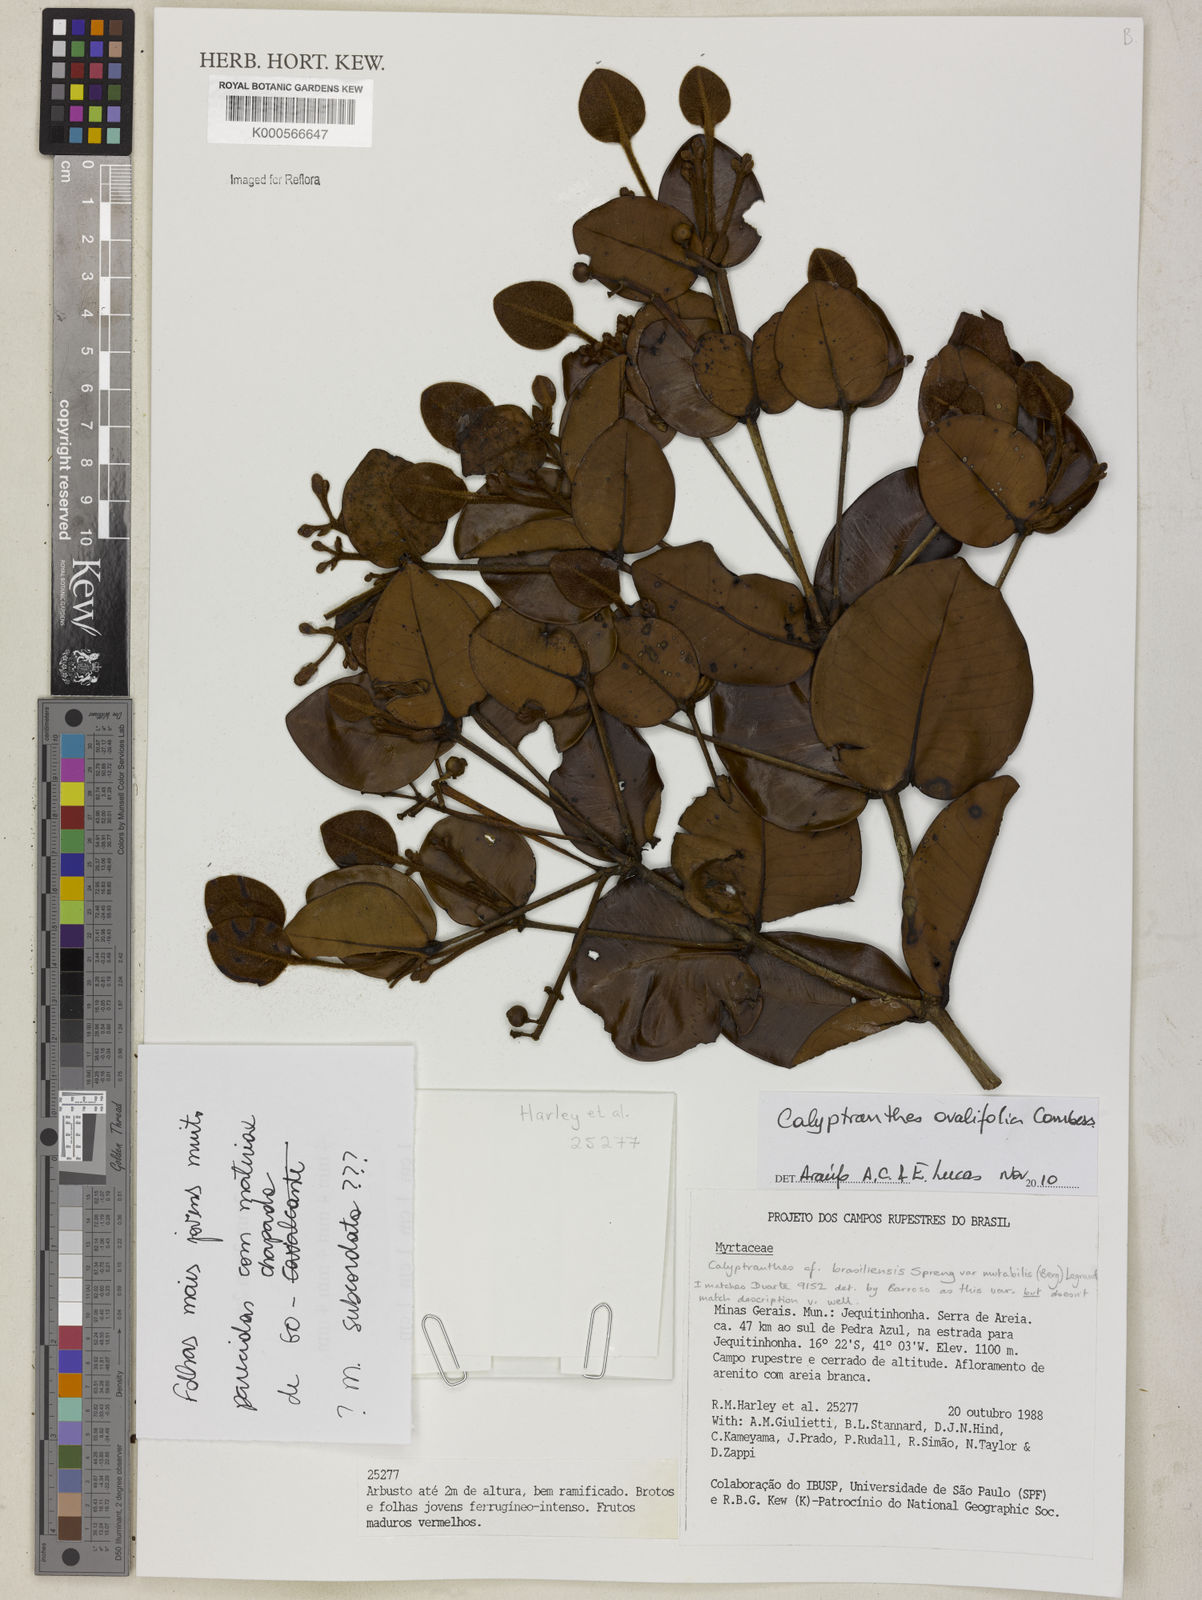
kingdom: Plantae
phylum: Tracheophyta
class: Magnoliopsida
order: Myrtales
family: Myrtaceae
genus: Calyptranthes
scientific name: Calyptranthes ovalifolia
